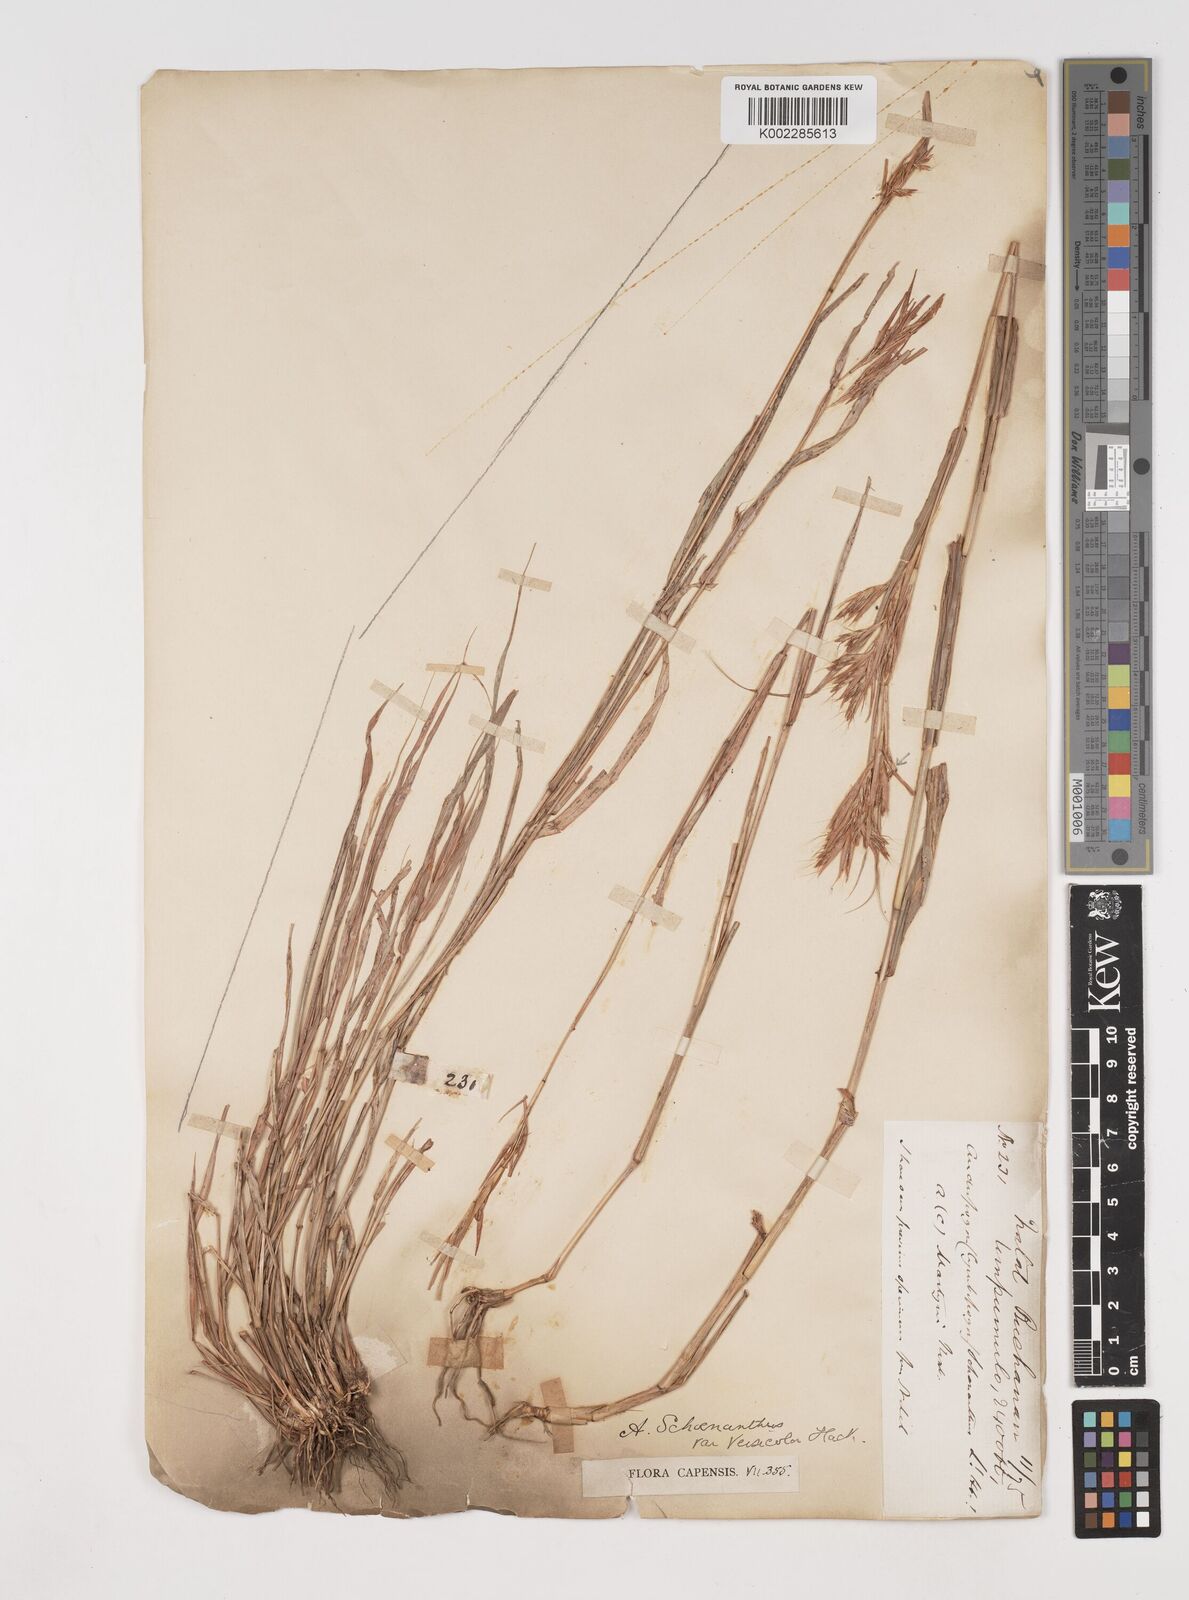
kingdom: Plantae
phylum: Tracheophyta
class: Liliopsida
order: Poales
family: Poaceae
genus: Cymbopogon
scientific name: Cymbopogon caesius
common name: Kachi grass
